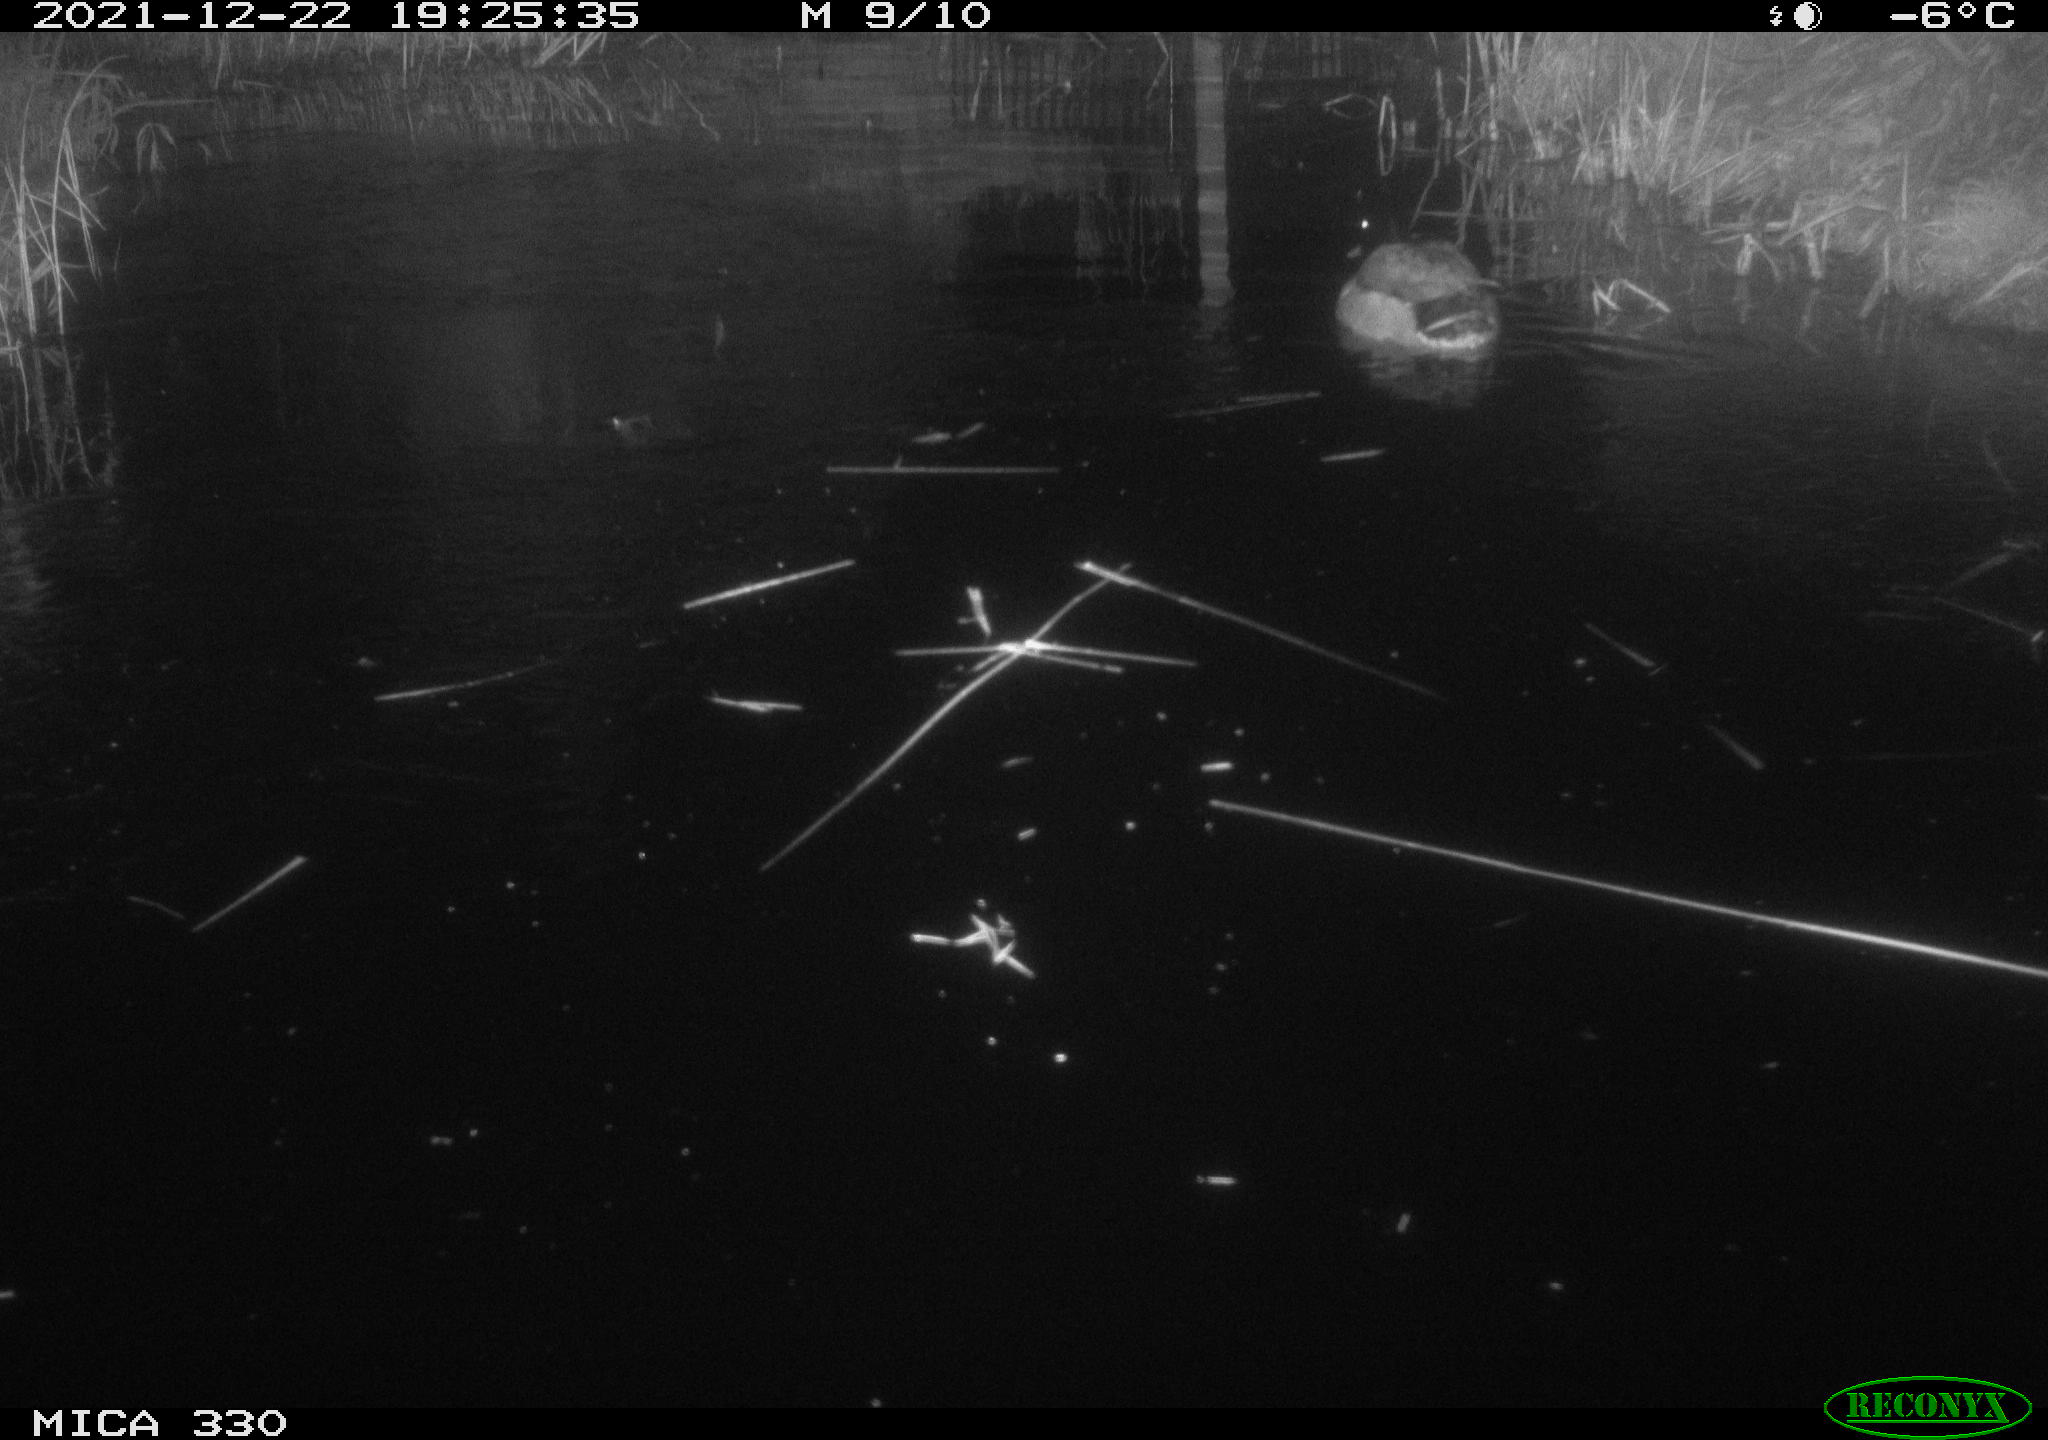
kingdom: Animalia
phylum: Chordata
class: Aves
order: Anseriformes
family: Anatidae
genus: Anas
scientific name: Anas platyrhynchos
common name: Mallard
